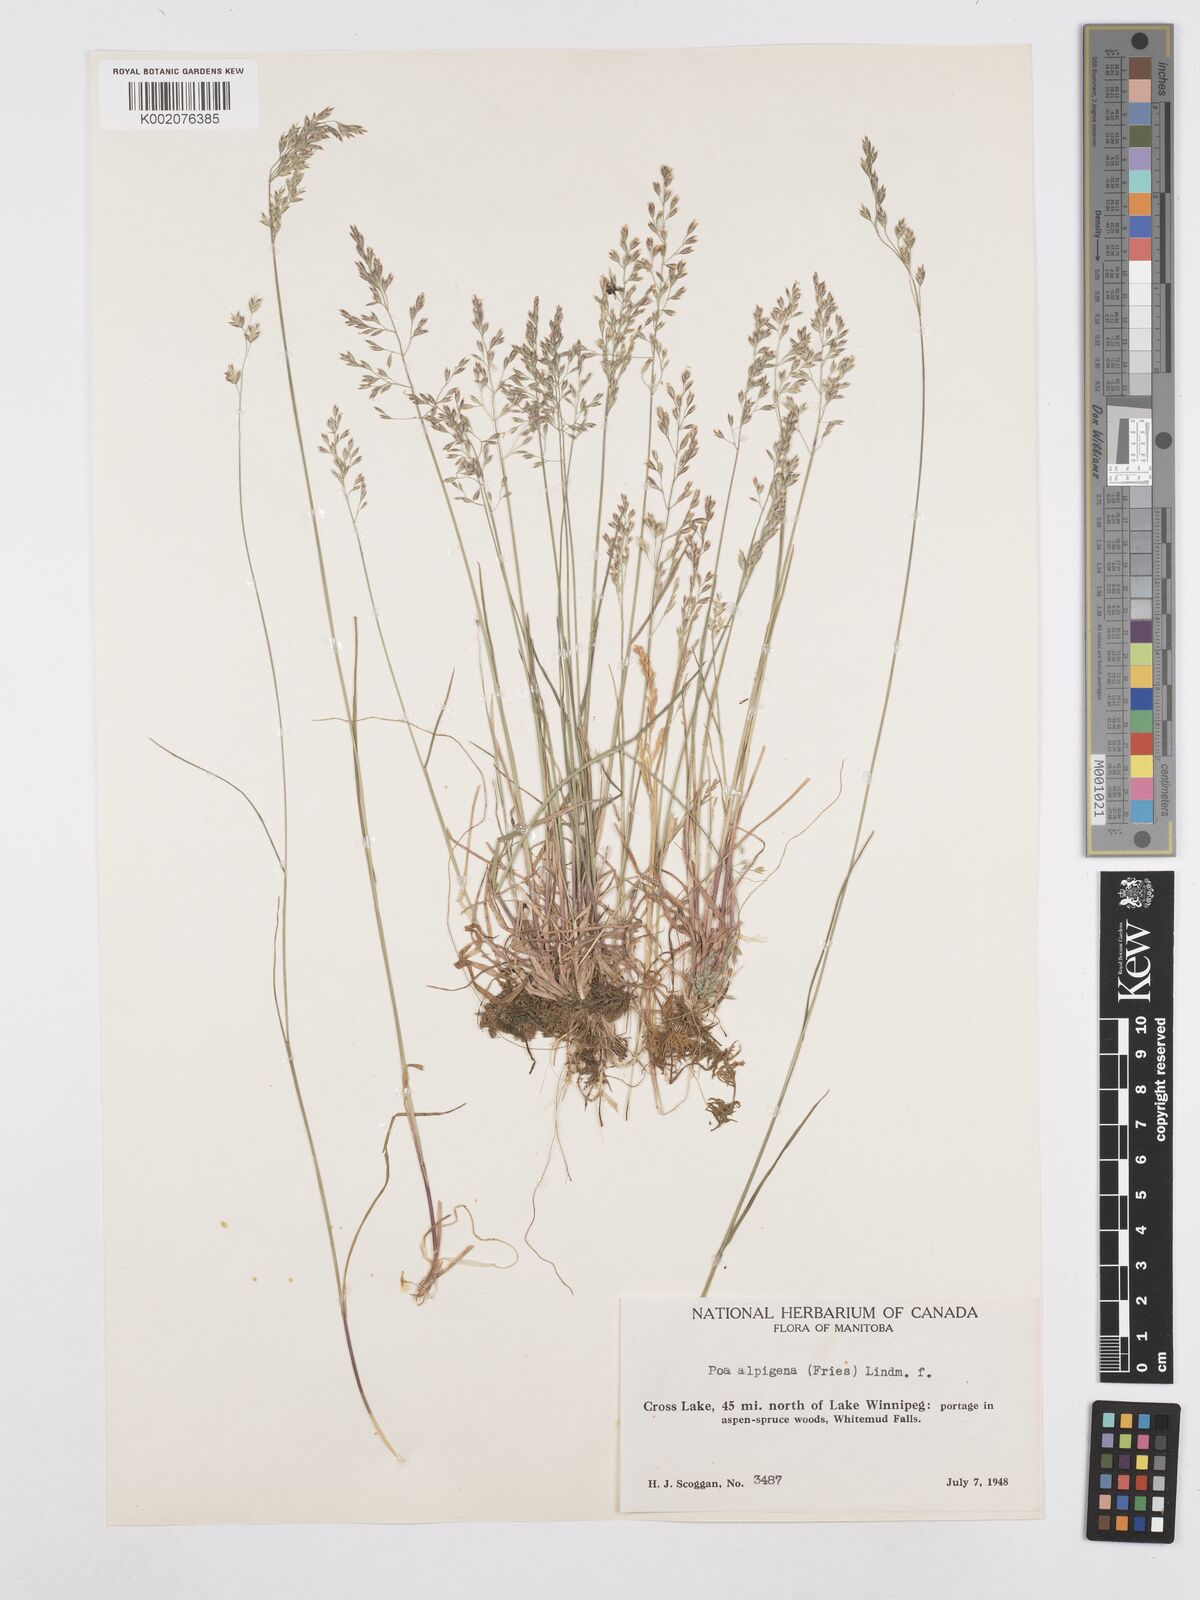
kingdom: Plantae
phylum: Tracheophyta
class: Liliopsida
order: Poales
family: Poaceae
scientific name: Poaceae
